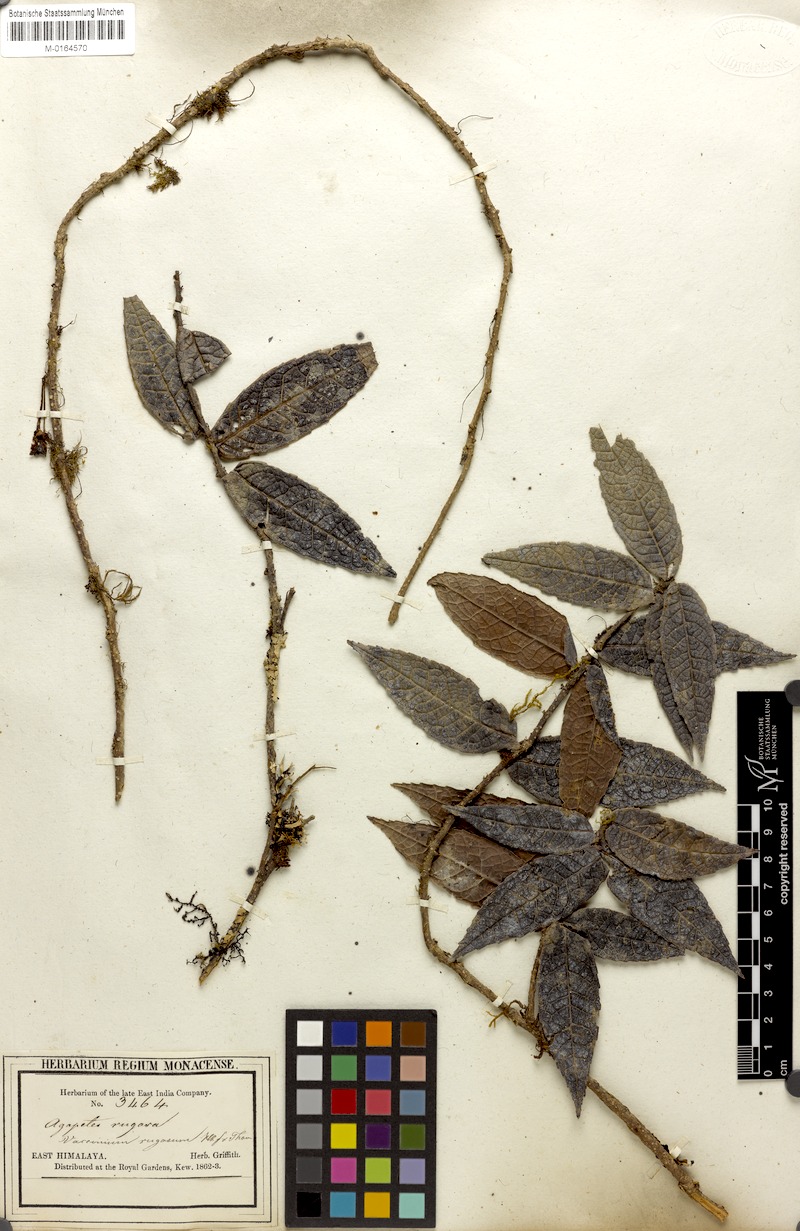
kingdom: Plantae
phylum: Tracheophyta
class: Magnoliopsida
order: Ericales
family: Ericaceae
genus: Agapetes
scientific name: Agapetes incurvata
